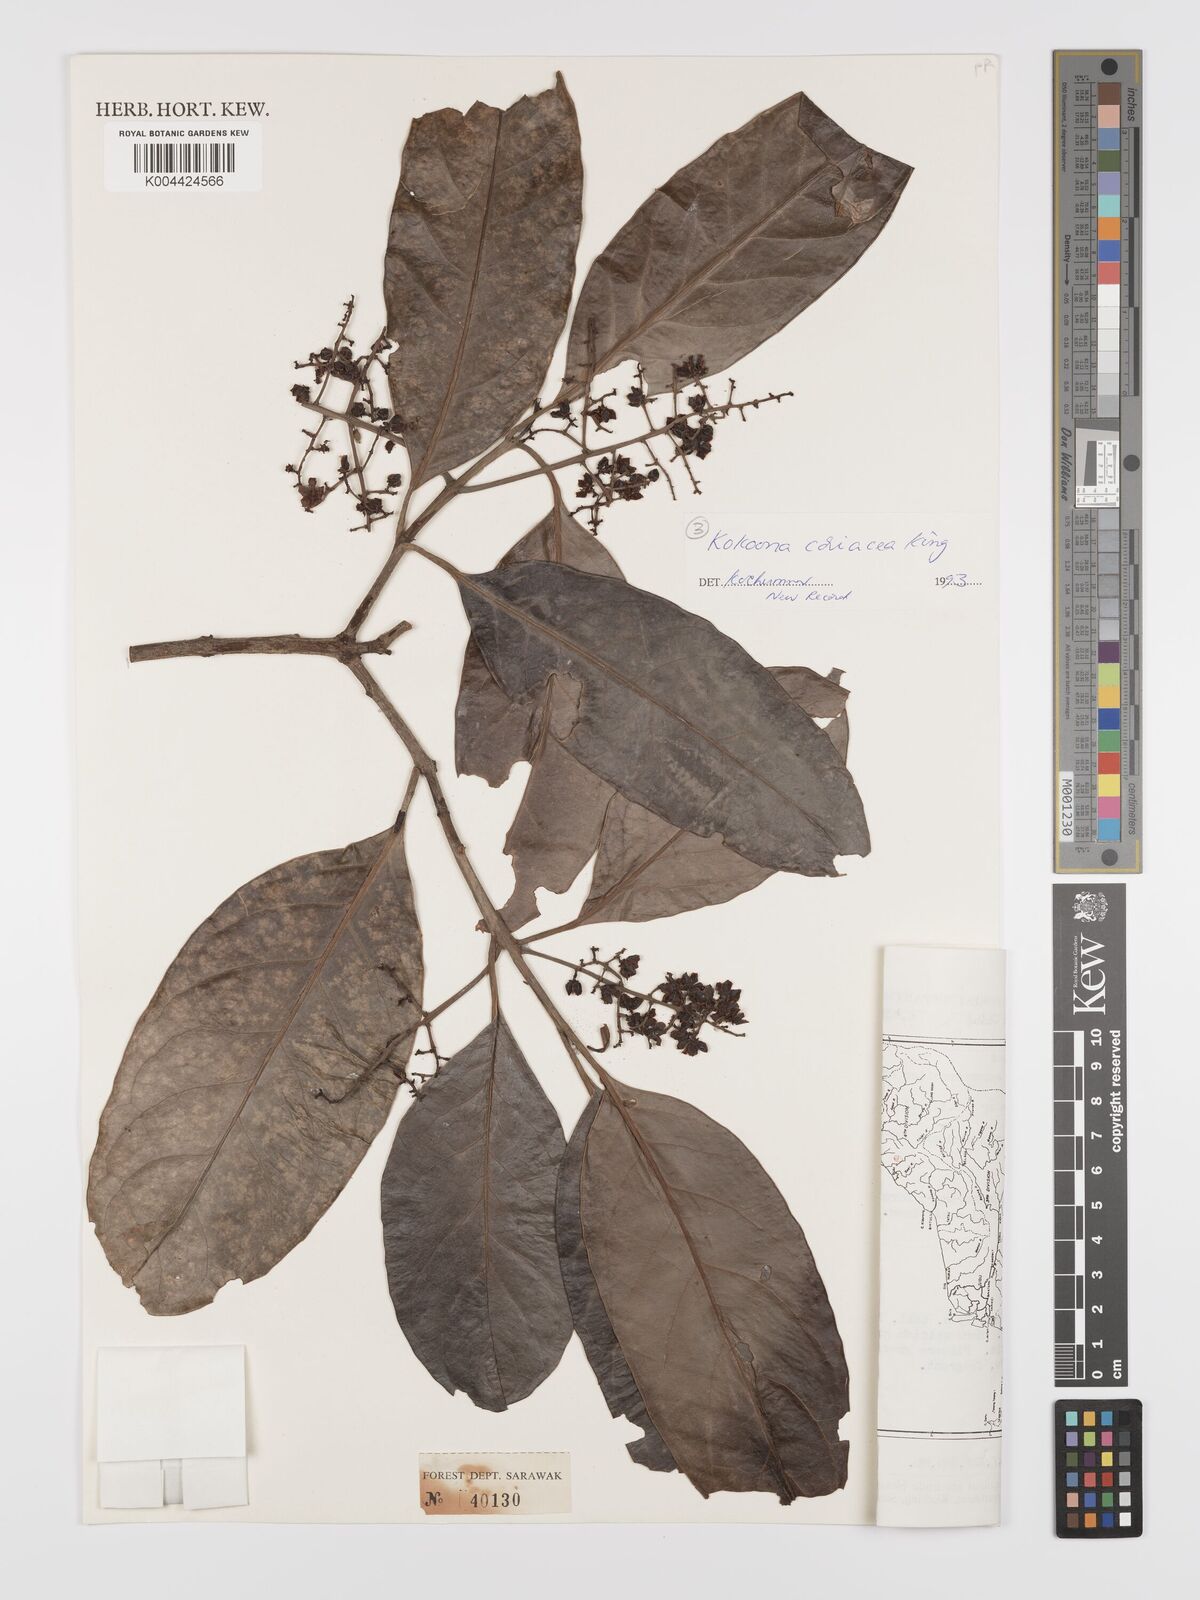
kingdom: Plantae
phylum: Tracheophyta
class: Magnoliopsida
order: Celastrales
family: Celastraceae
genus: Kokoona
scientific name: Kokoona coriacea
